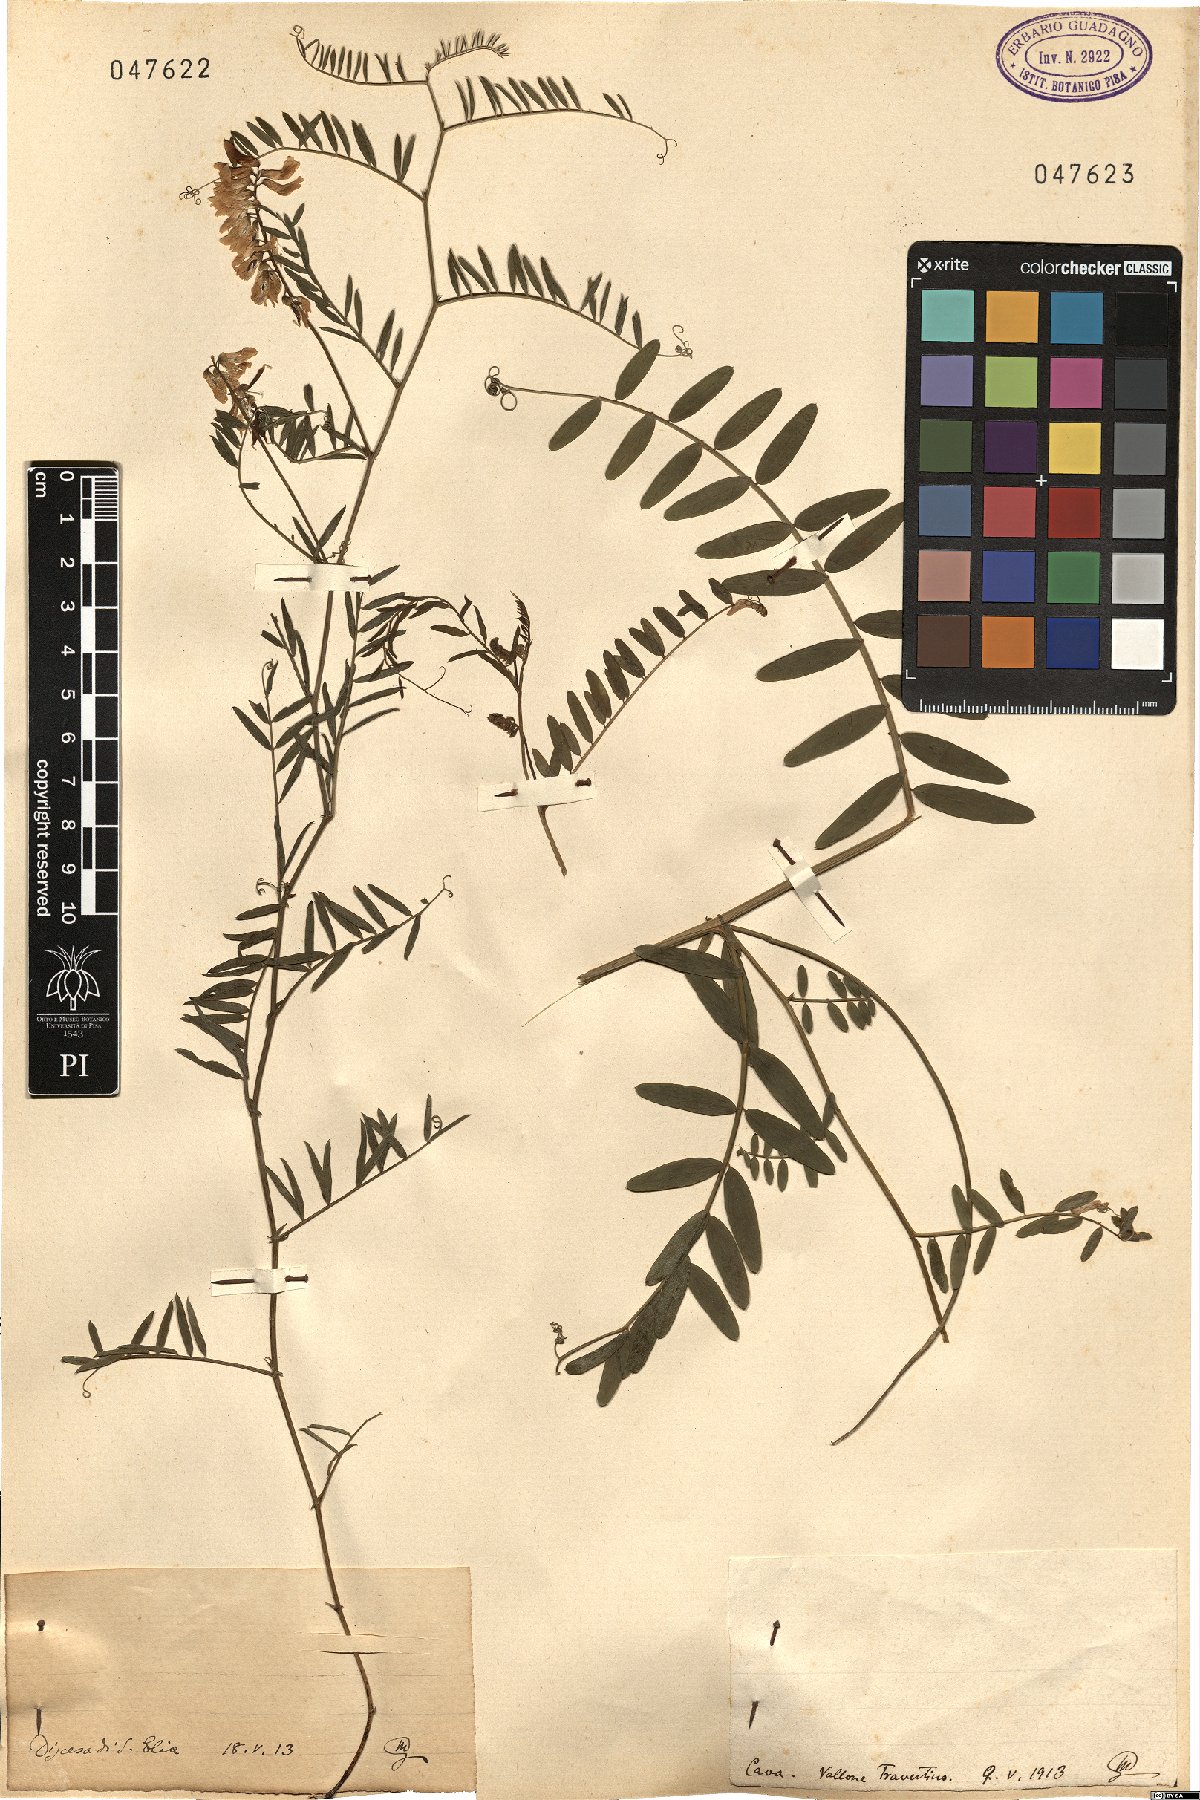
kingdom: Plantae
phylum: Tracheophyta
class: Magnoliopsida
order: Fabales
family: Fabaceae
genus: Vicia
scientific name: Vicia
